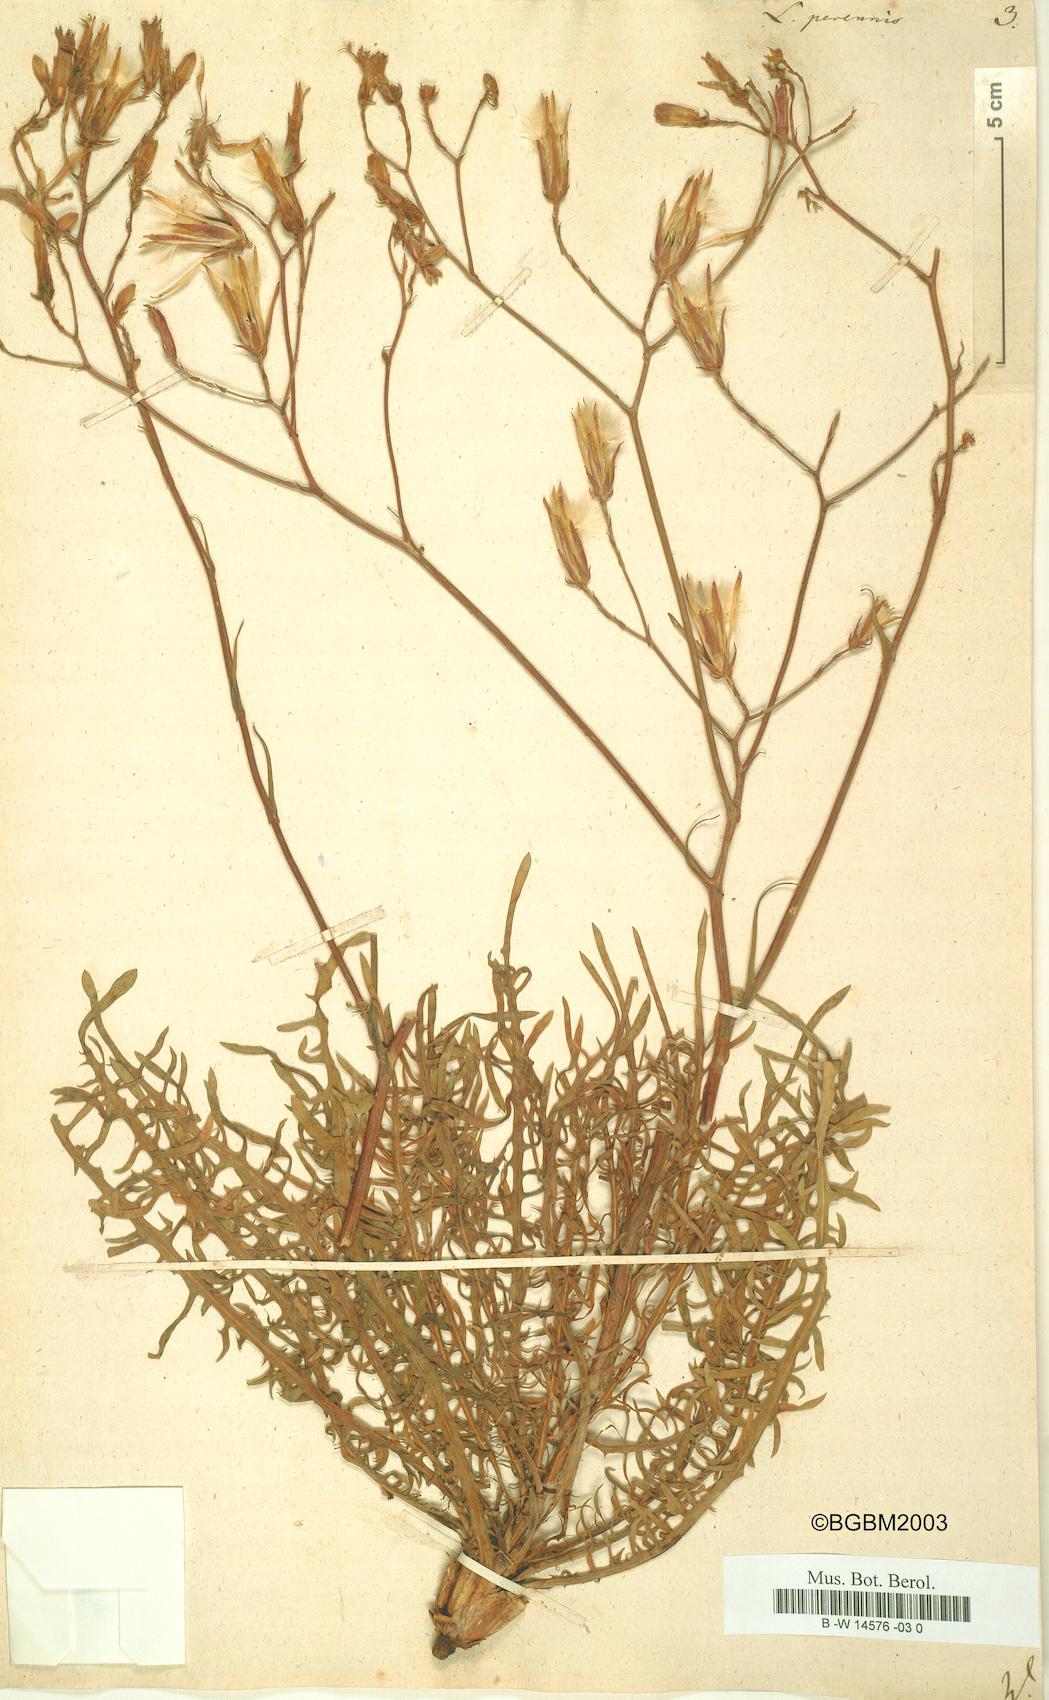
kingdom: Plantae
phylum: Tracheophyta
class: Magnoliopsida
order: Asterales
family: Asteraceae
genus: Lactuca
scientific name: Lactuca perennis
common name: Mountain lettuce
